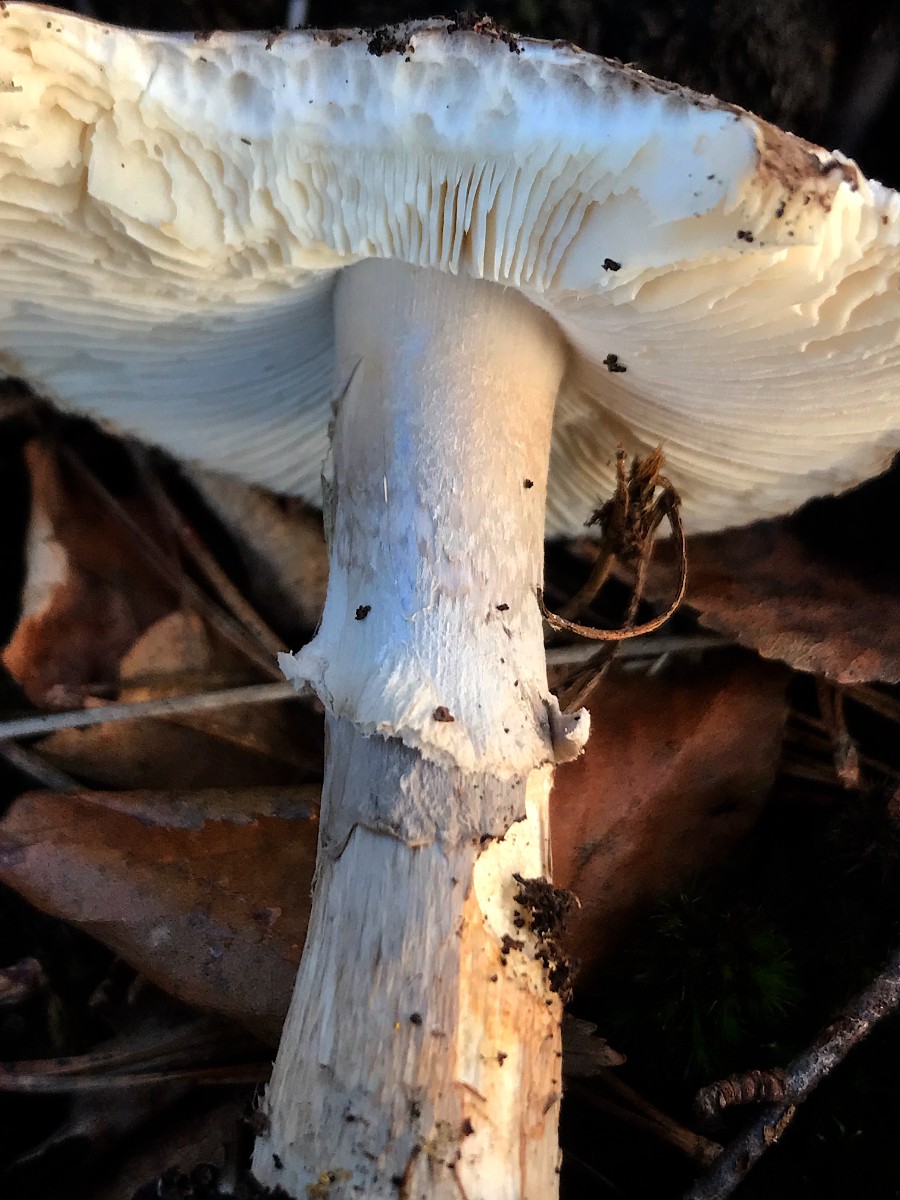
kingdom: Fungi
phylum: Basidiomycota
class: Agaricomycetes
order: Agaricales
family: Amanitaceae
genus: Amanita
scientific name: Amanita
